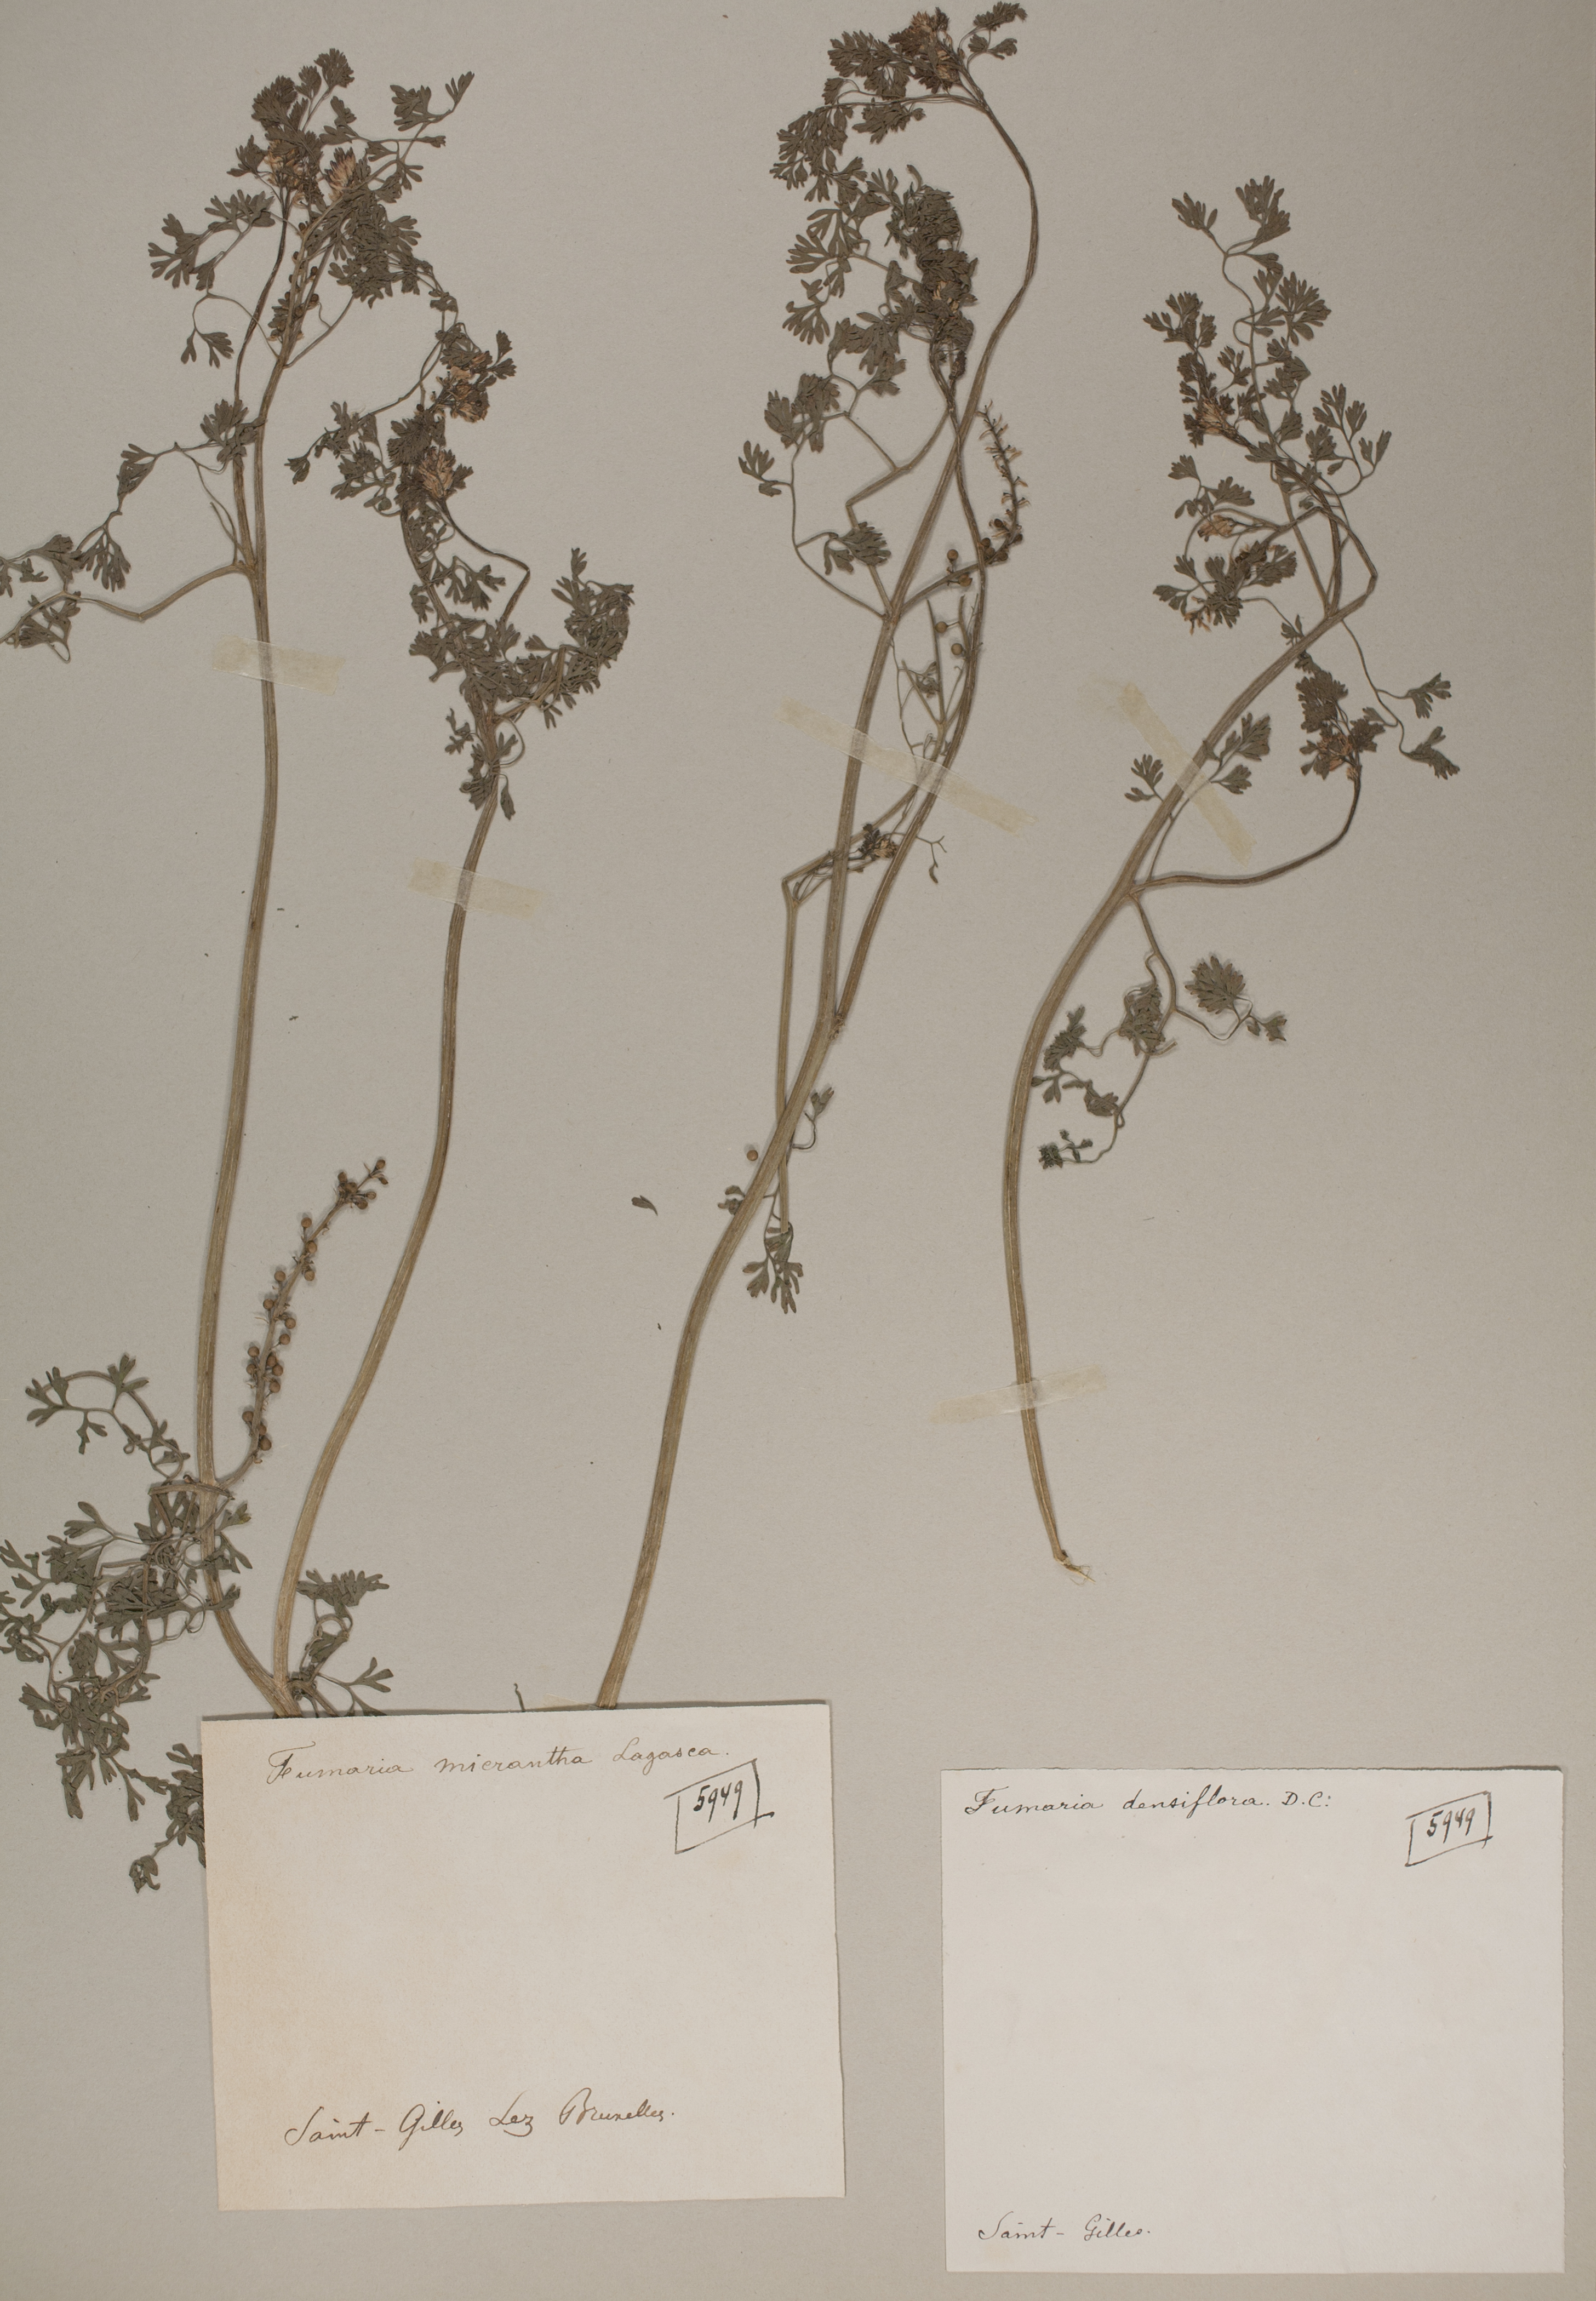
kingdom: Plantae
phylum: Tracheophyta
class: Magnoliopsida
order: Ranunculales
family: Papaveraceae
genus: Fumaria
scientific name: Fumaria densiflora
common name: Dense-flowered fumitory
